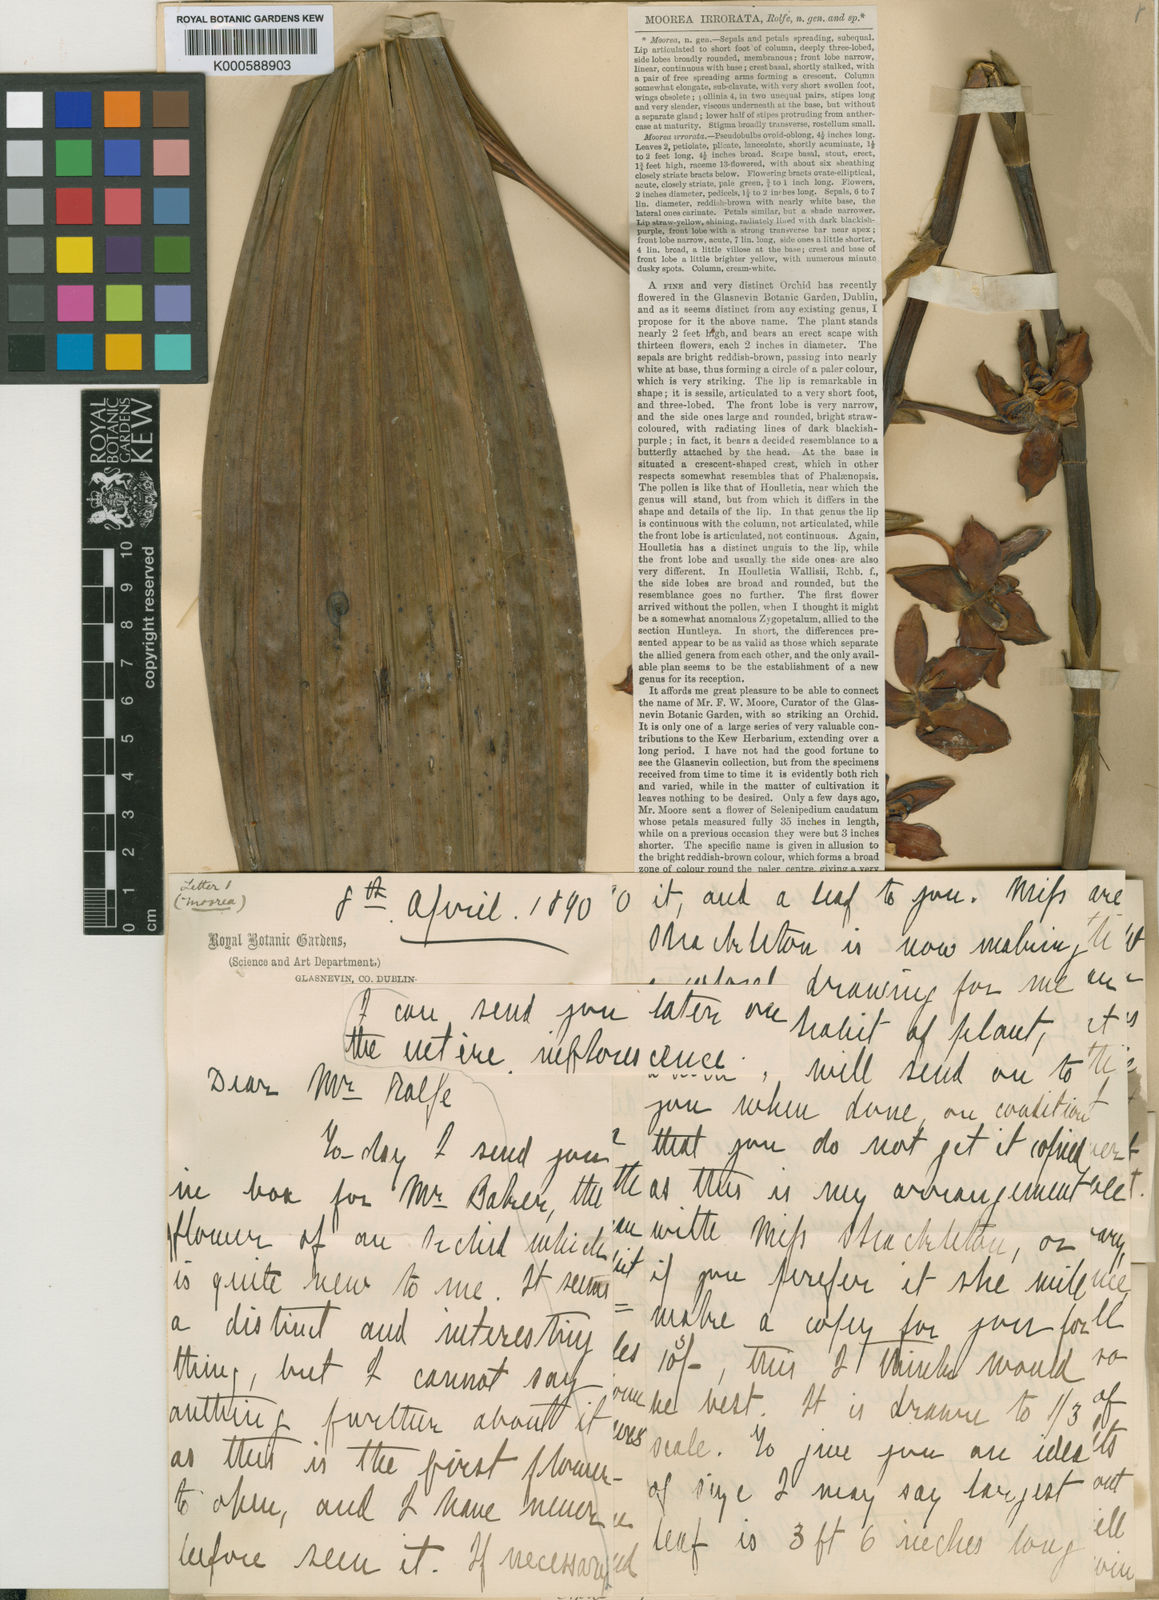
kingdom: Plantae
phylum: Tracheophyta
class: Liliopsida
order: Asparagales
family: Orchidaceae
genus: Neomoorea
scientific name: Neomoorea wallisii
